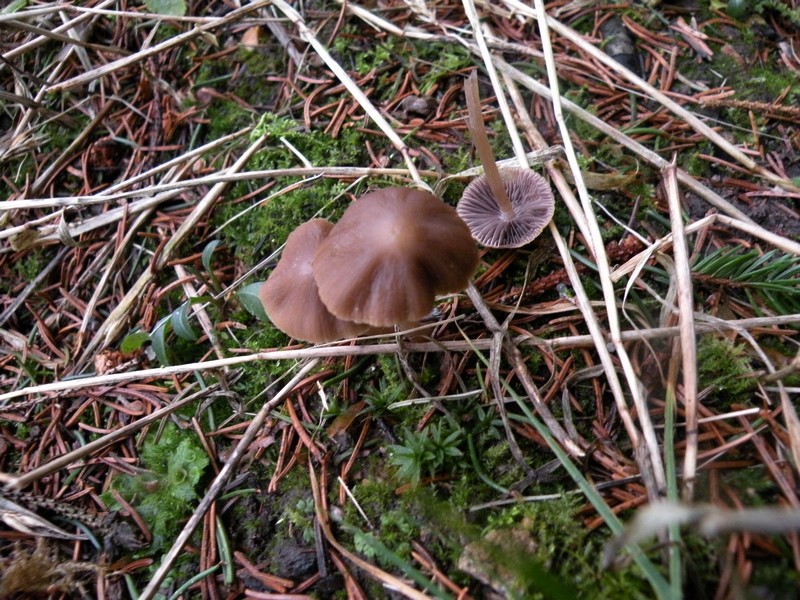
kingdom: Fungi
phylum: Basidiomycota
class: Agaricomycetes
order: Agaricales
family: Psathyrellaceae
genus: Psathyrella
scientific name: Psathyrella microrhiza
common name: rod-mørkhat
